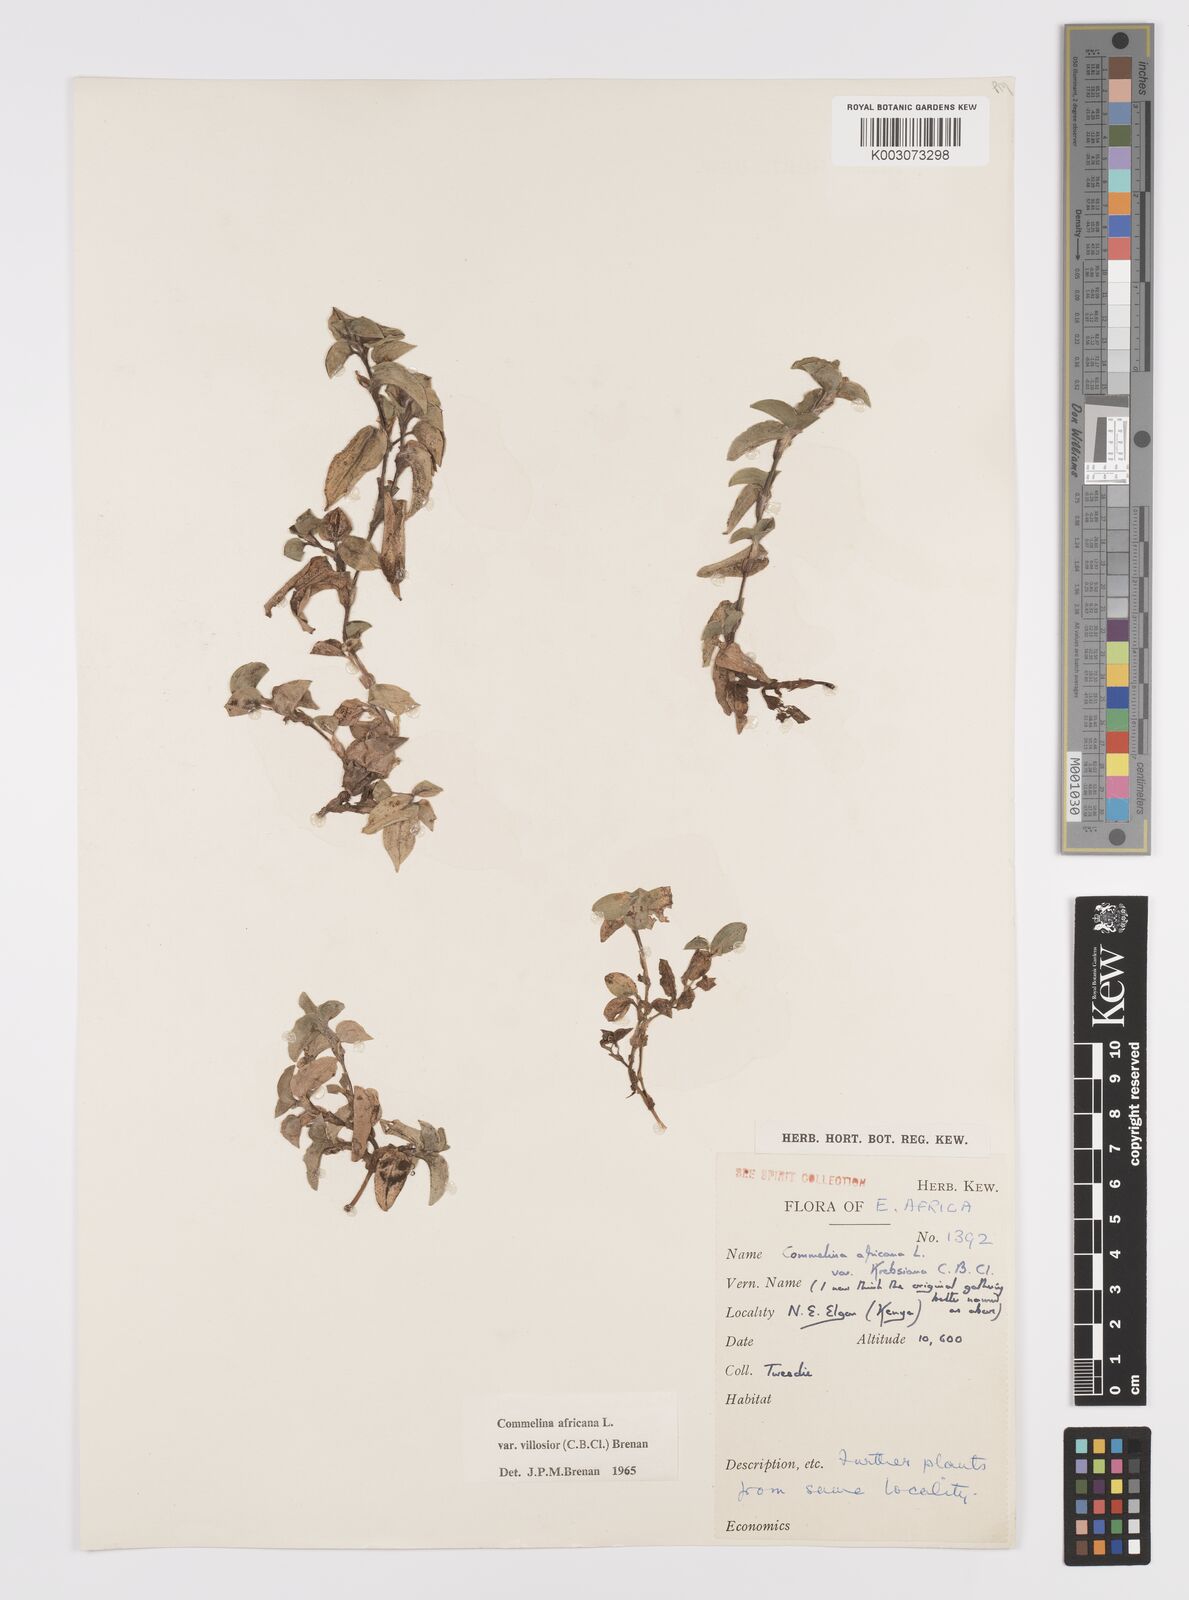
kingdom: Plantae
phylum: Tracheophyta
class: Liliopsida
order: Commelinales
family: Commelinaceae
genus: Commelina
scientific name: Commelina africana
